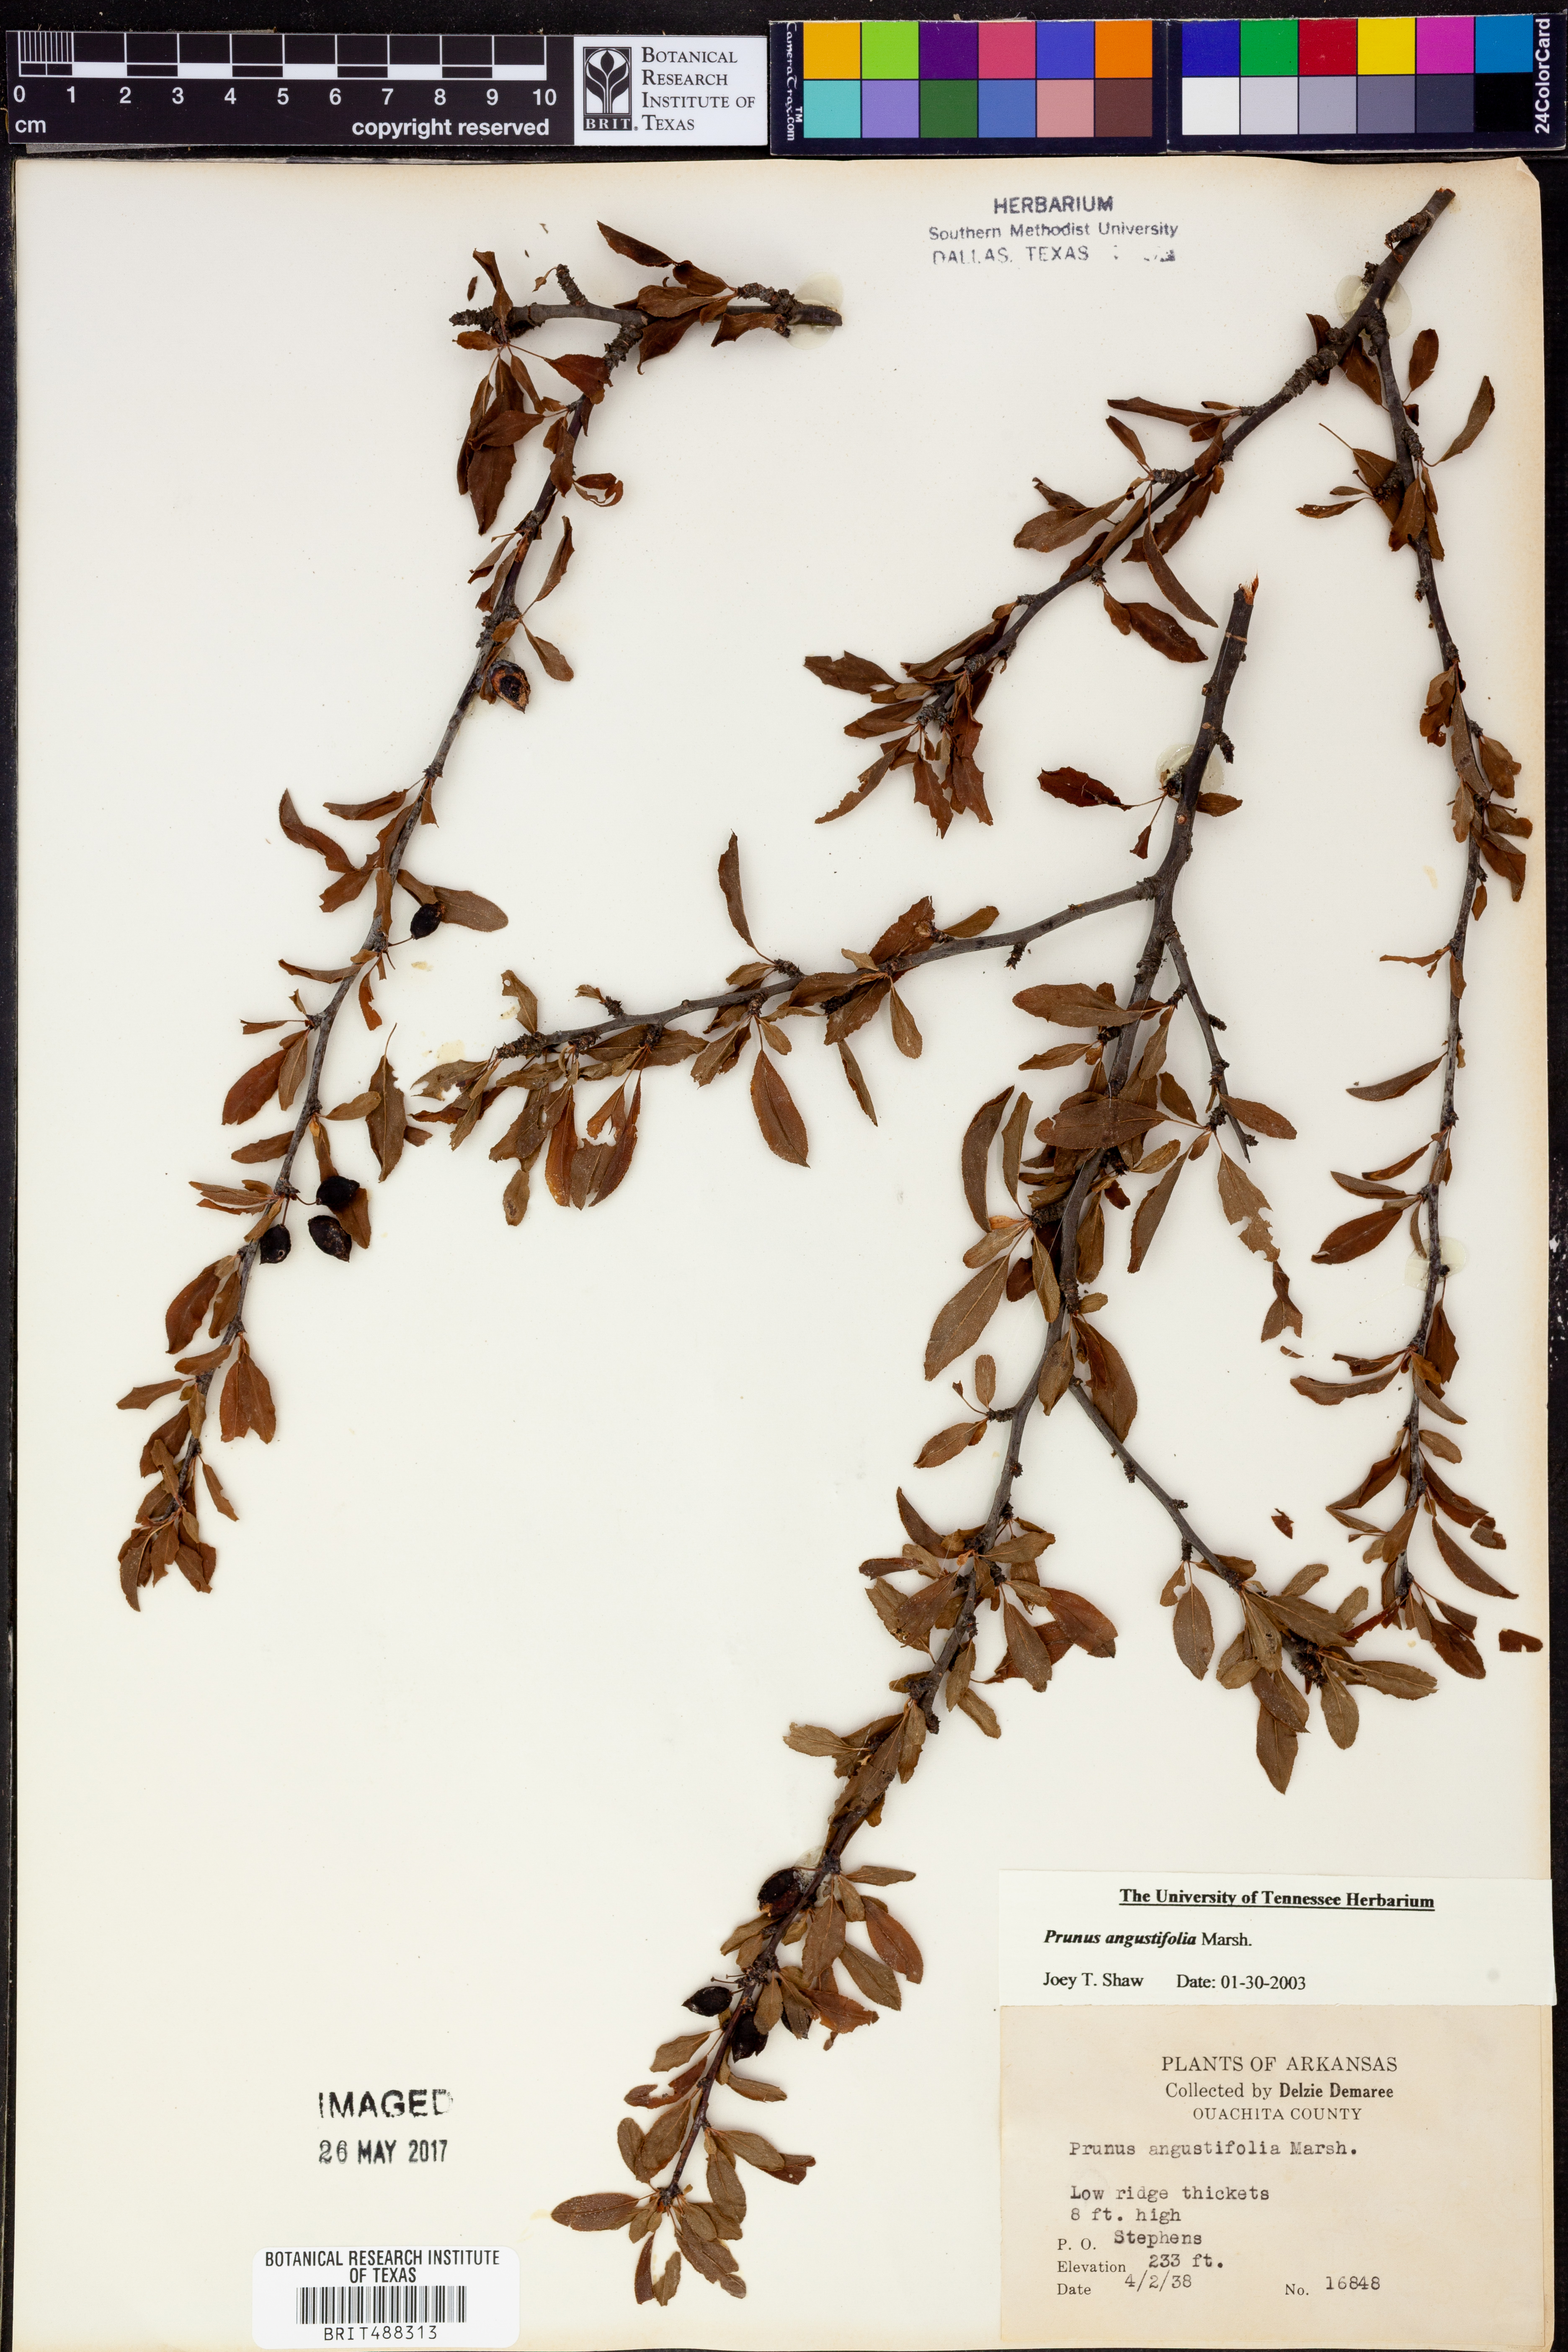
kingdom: Plantae
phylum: Tracheophyta
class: Magnoliopsida
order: Rosales
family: Rosaceae
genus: Prunus
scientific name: Prunus angustifolia
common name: Cherokee plum
